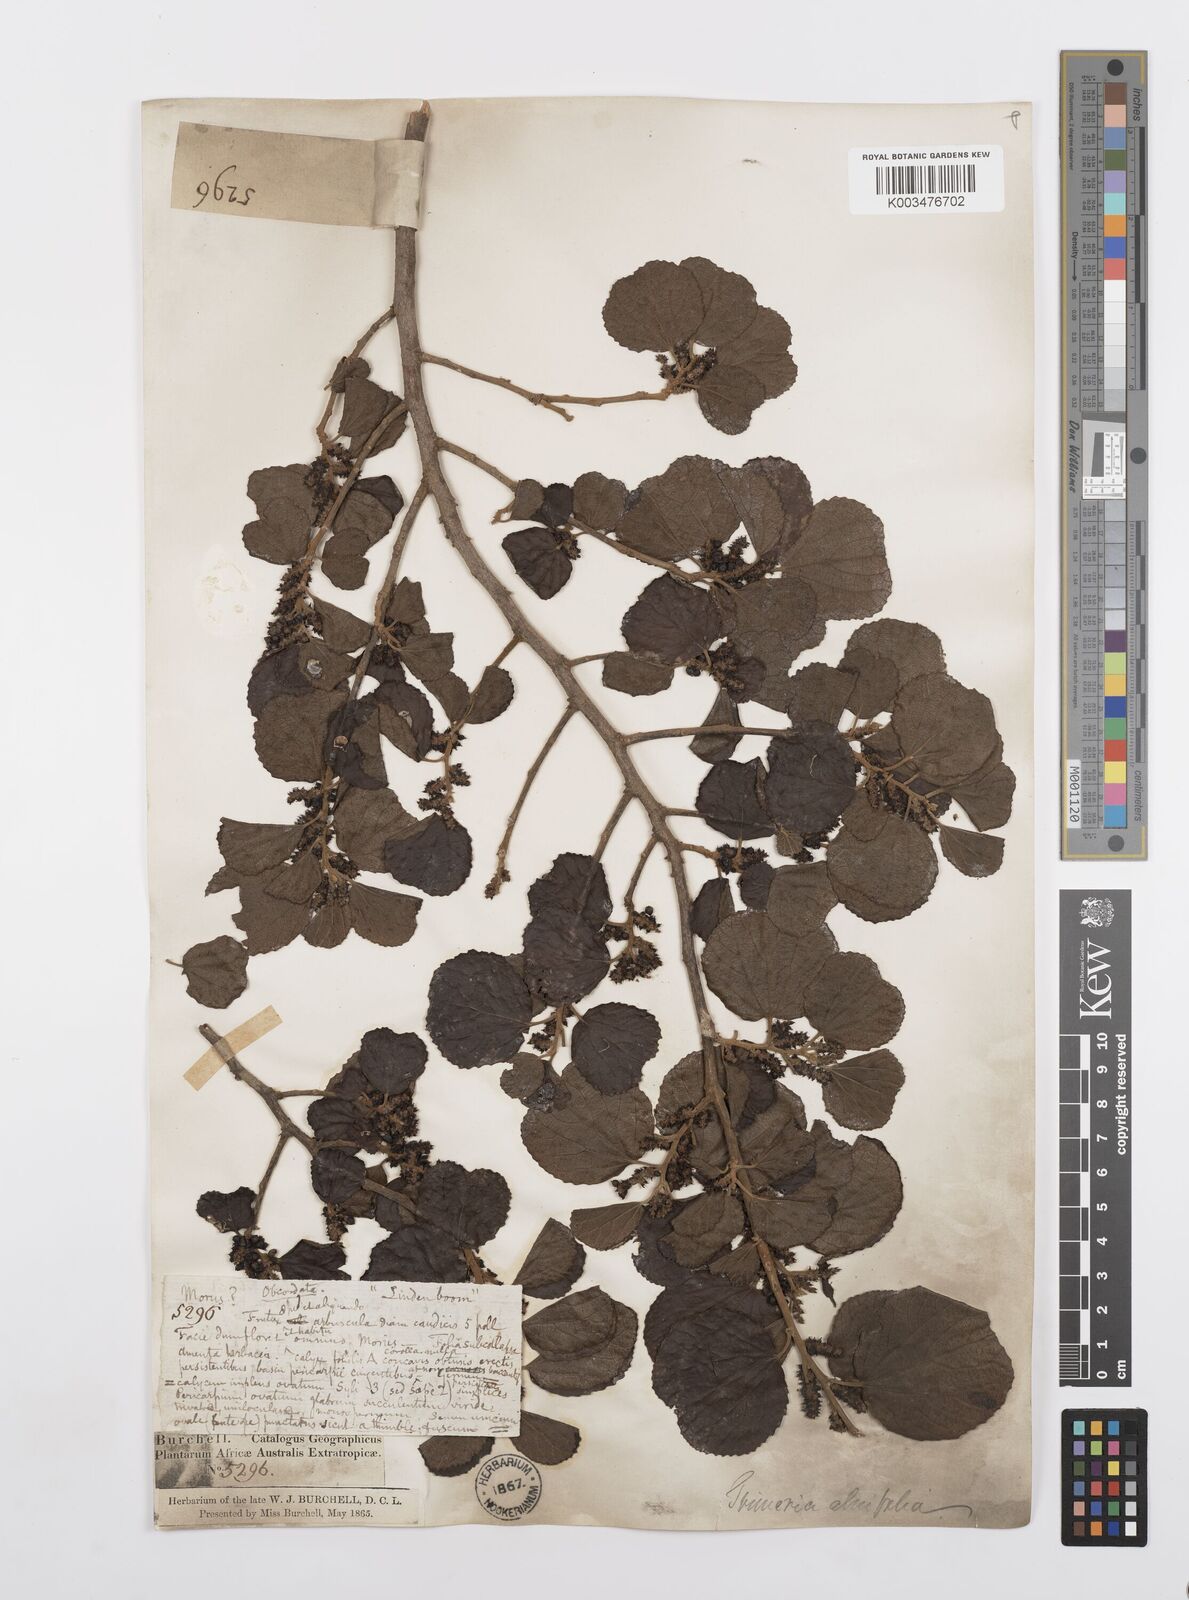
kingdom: Plantae
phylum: Tracheophyta
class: Magnoliopsida
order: Malpighiales
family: Salicaceae
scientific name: Salicaceae
